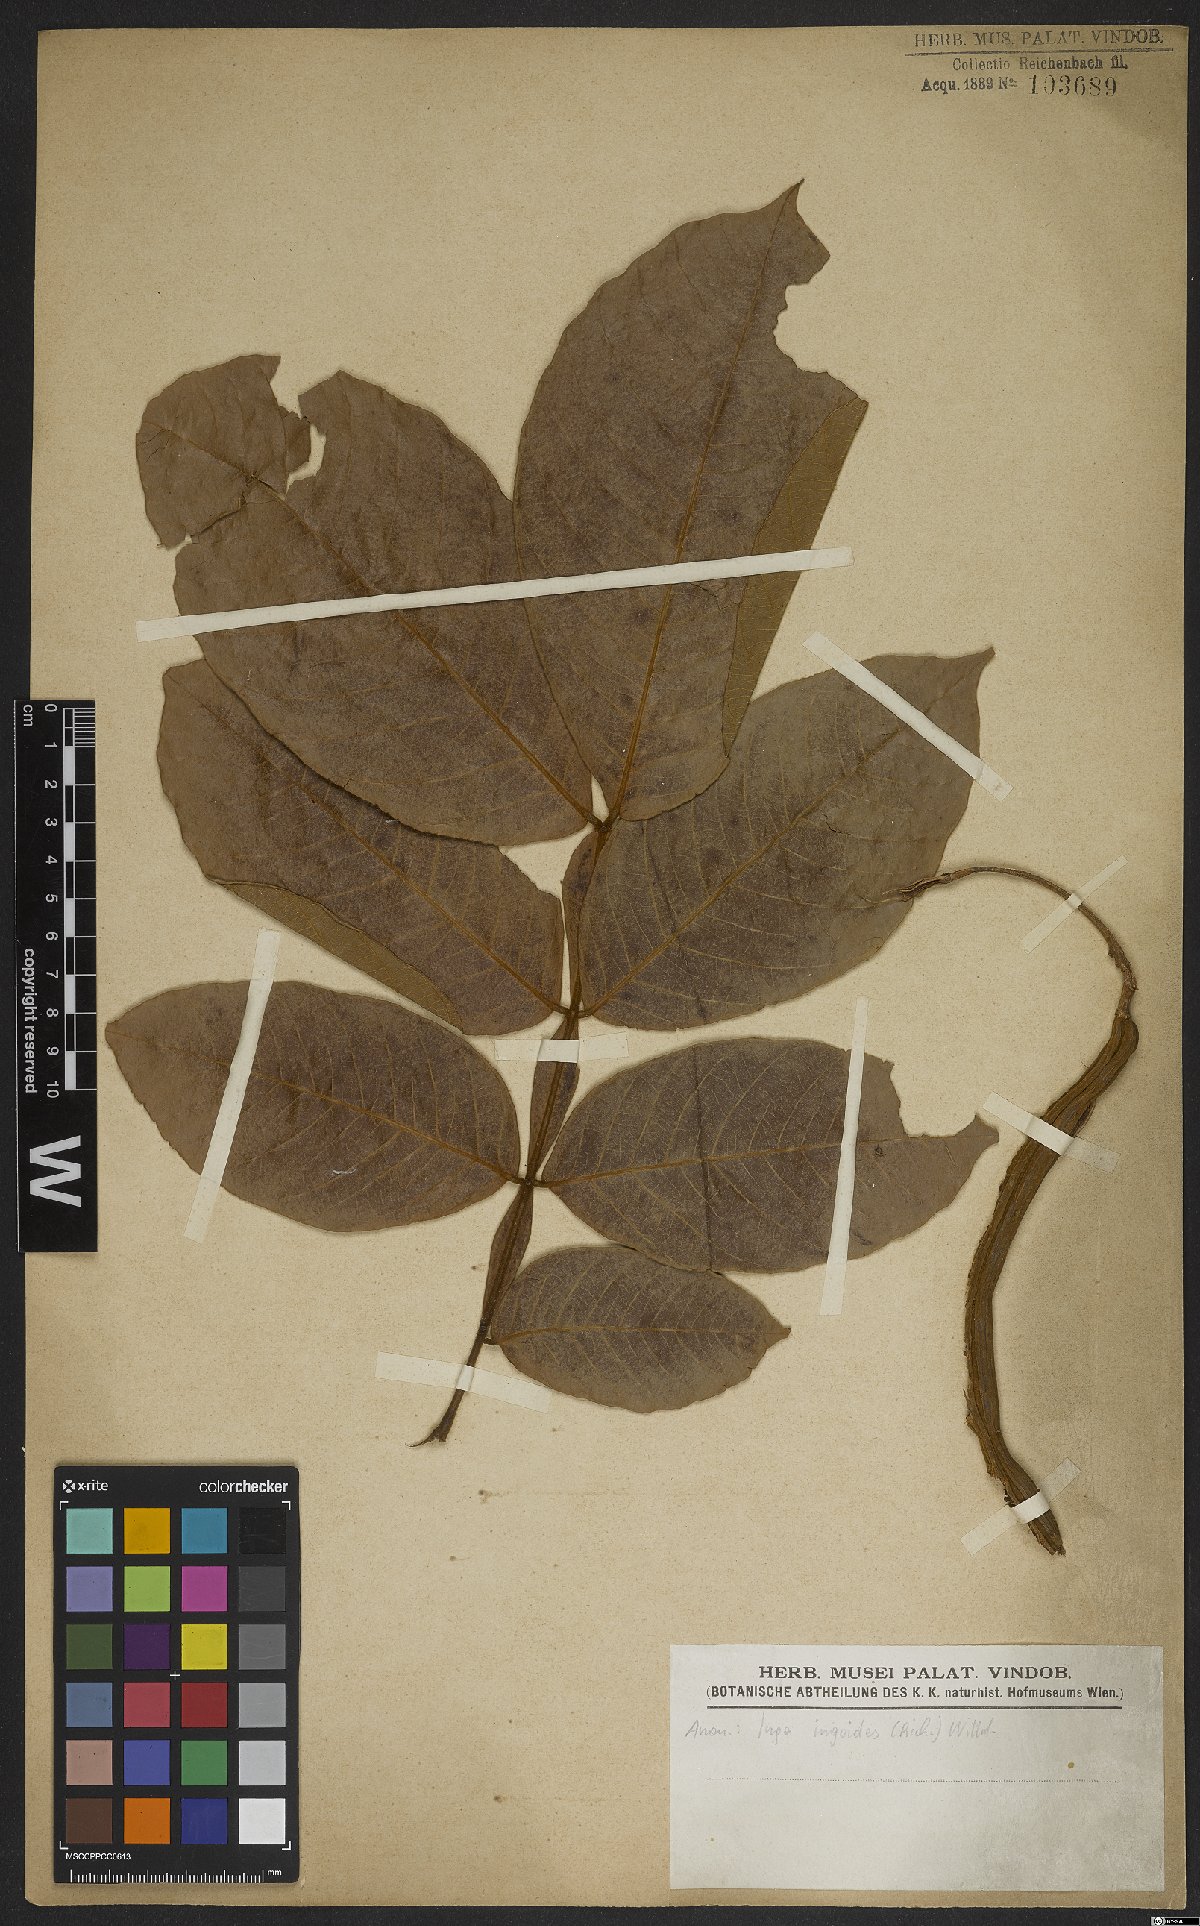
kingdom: Plantae
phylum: Tracheophyta
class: Magnoliopsida
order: Fabales
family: Fabaceae
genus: Inga
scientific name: Inga ingoides
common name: Spanish ash
